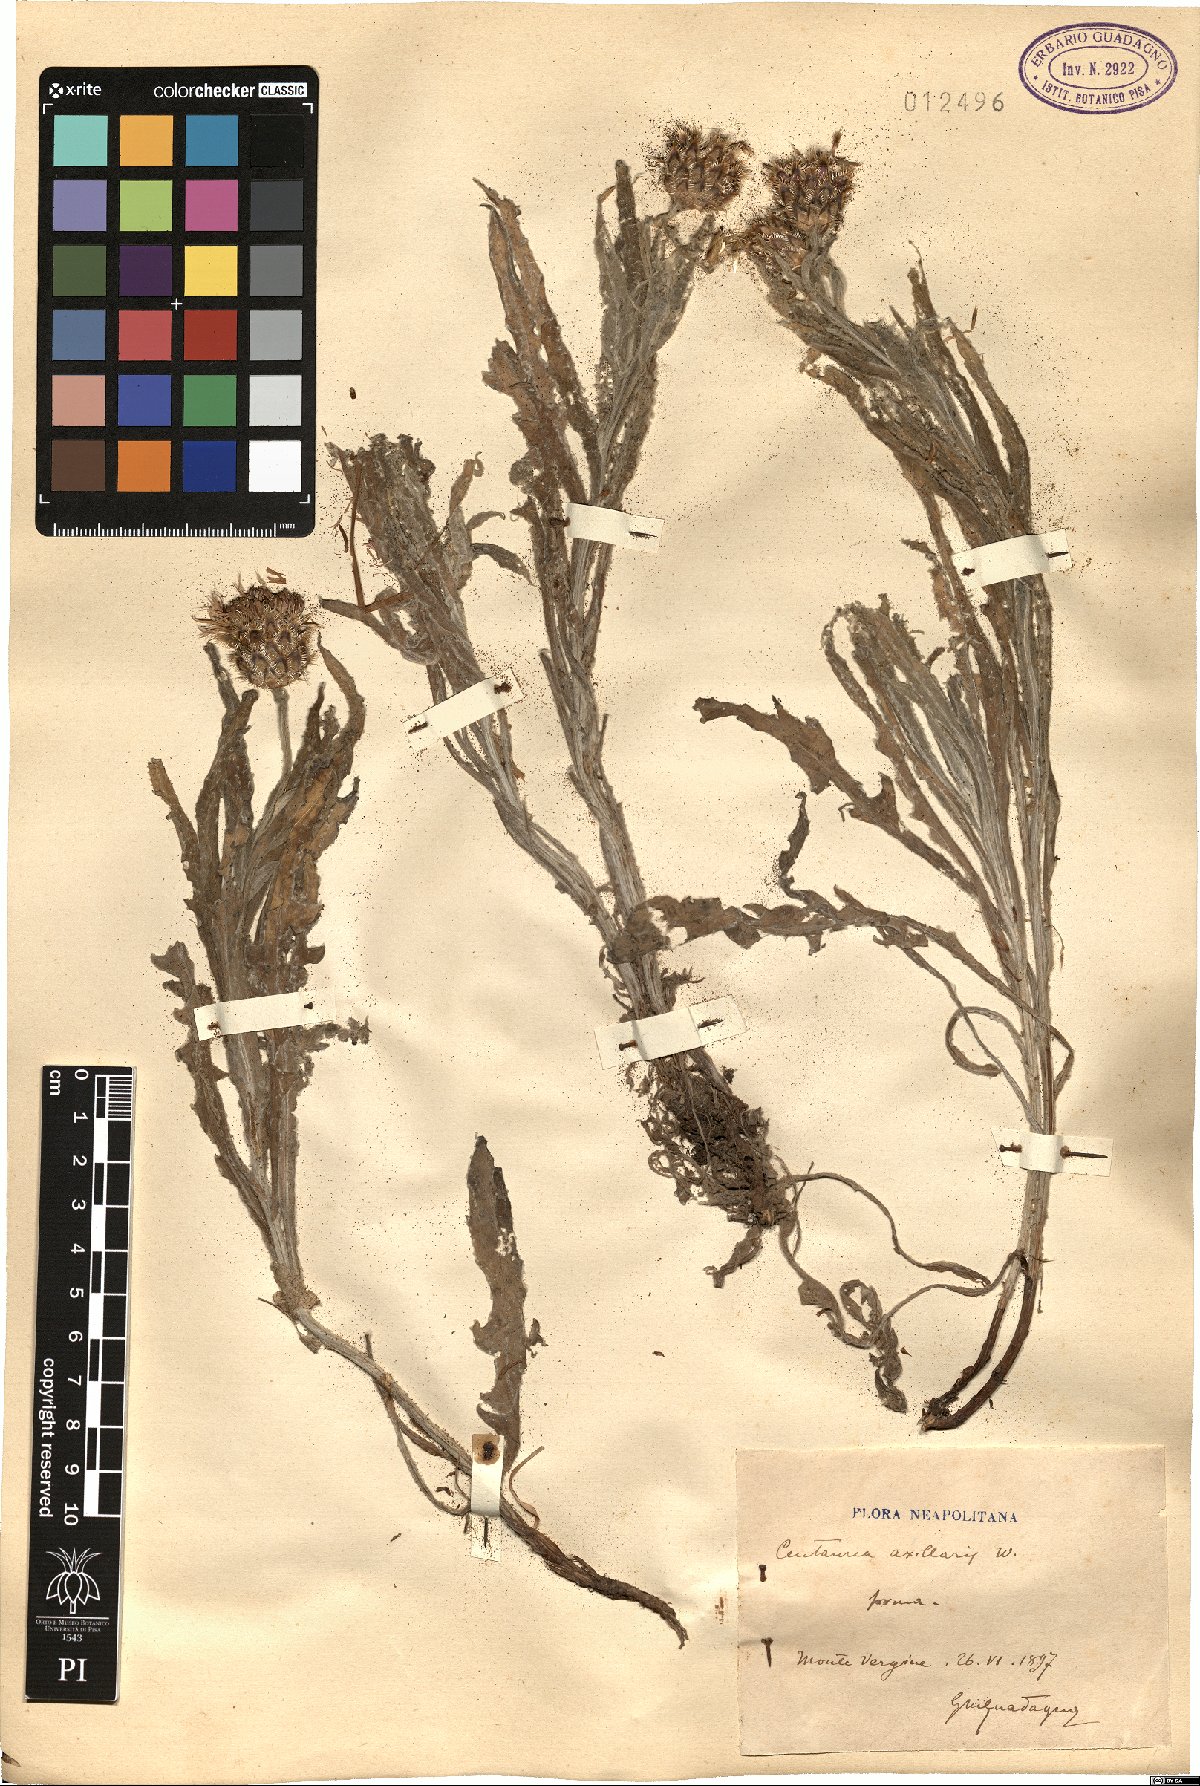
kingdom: Plantae
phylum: Tracheophyta
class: Magnoliopsida
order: Asterales
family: Asteraceae
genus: Centaurea
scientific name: Centaurea triumfettii
